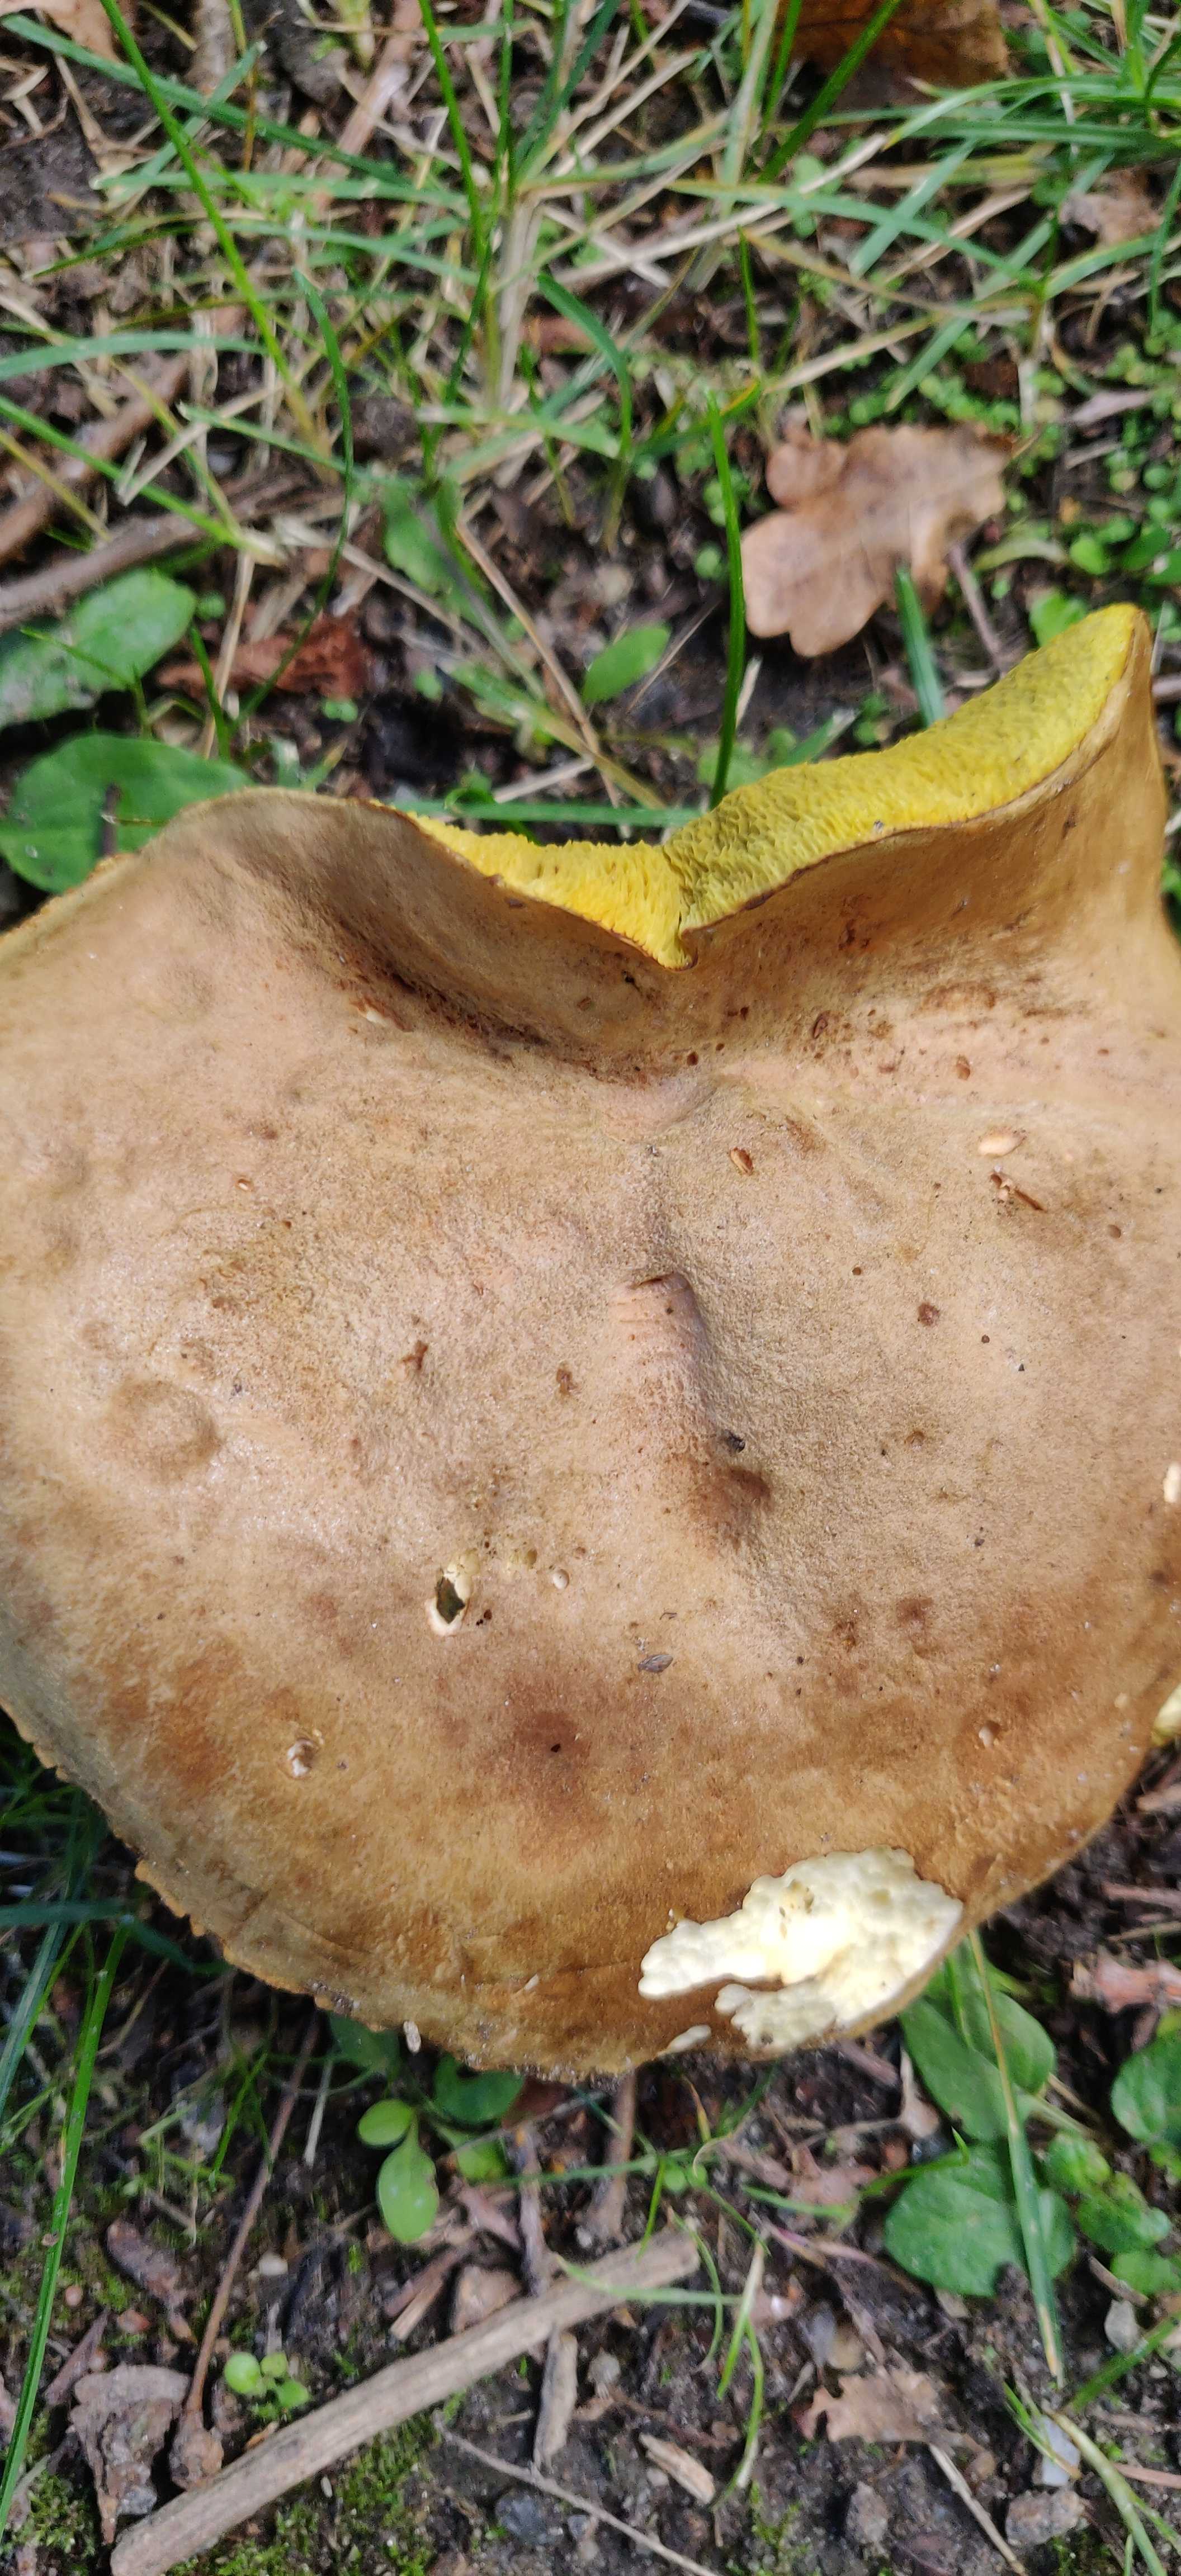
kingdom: Fungi
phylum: Basidiomycota
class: Agaricomycetes
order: Boletales
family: Boletaceae
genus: Xerocomus
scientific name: Xerocomus ferrugineus
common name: vaskeskinds-rørhat
